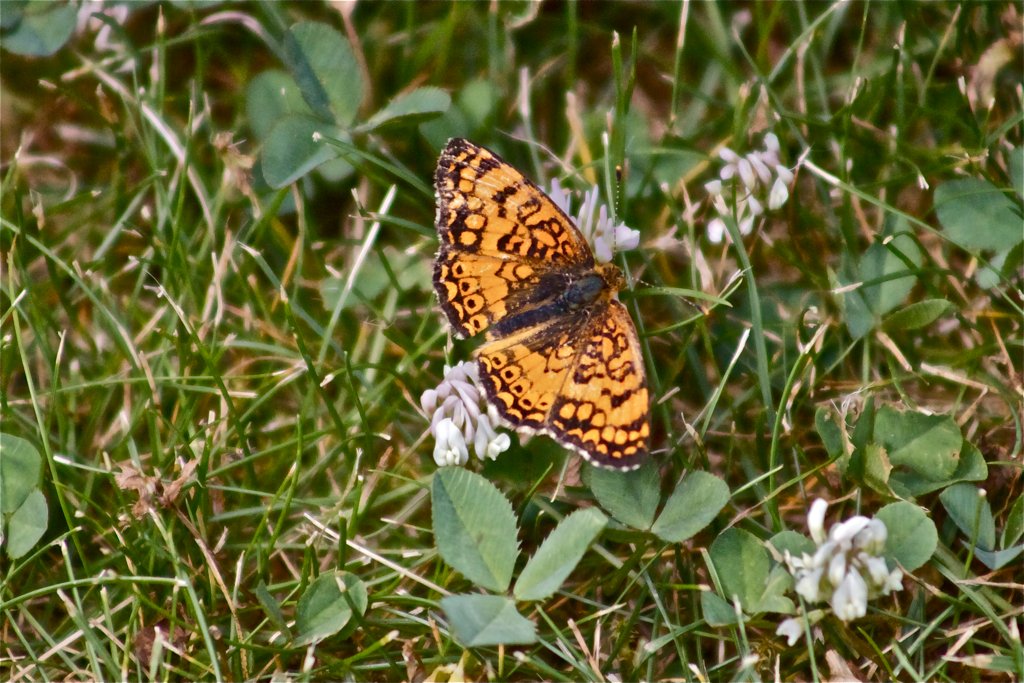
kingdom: Animalia
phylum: Arthropoda
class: Insecta
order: Lepidoptera
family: Nymphalidae
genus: Eresia
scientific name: Eresia aveyrona
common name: Mylitta Crescent
